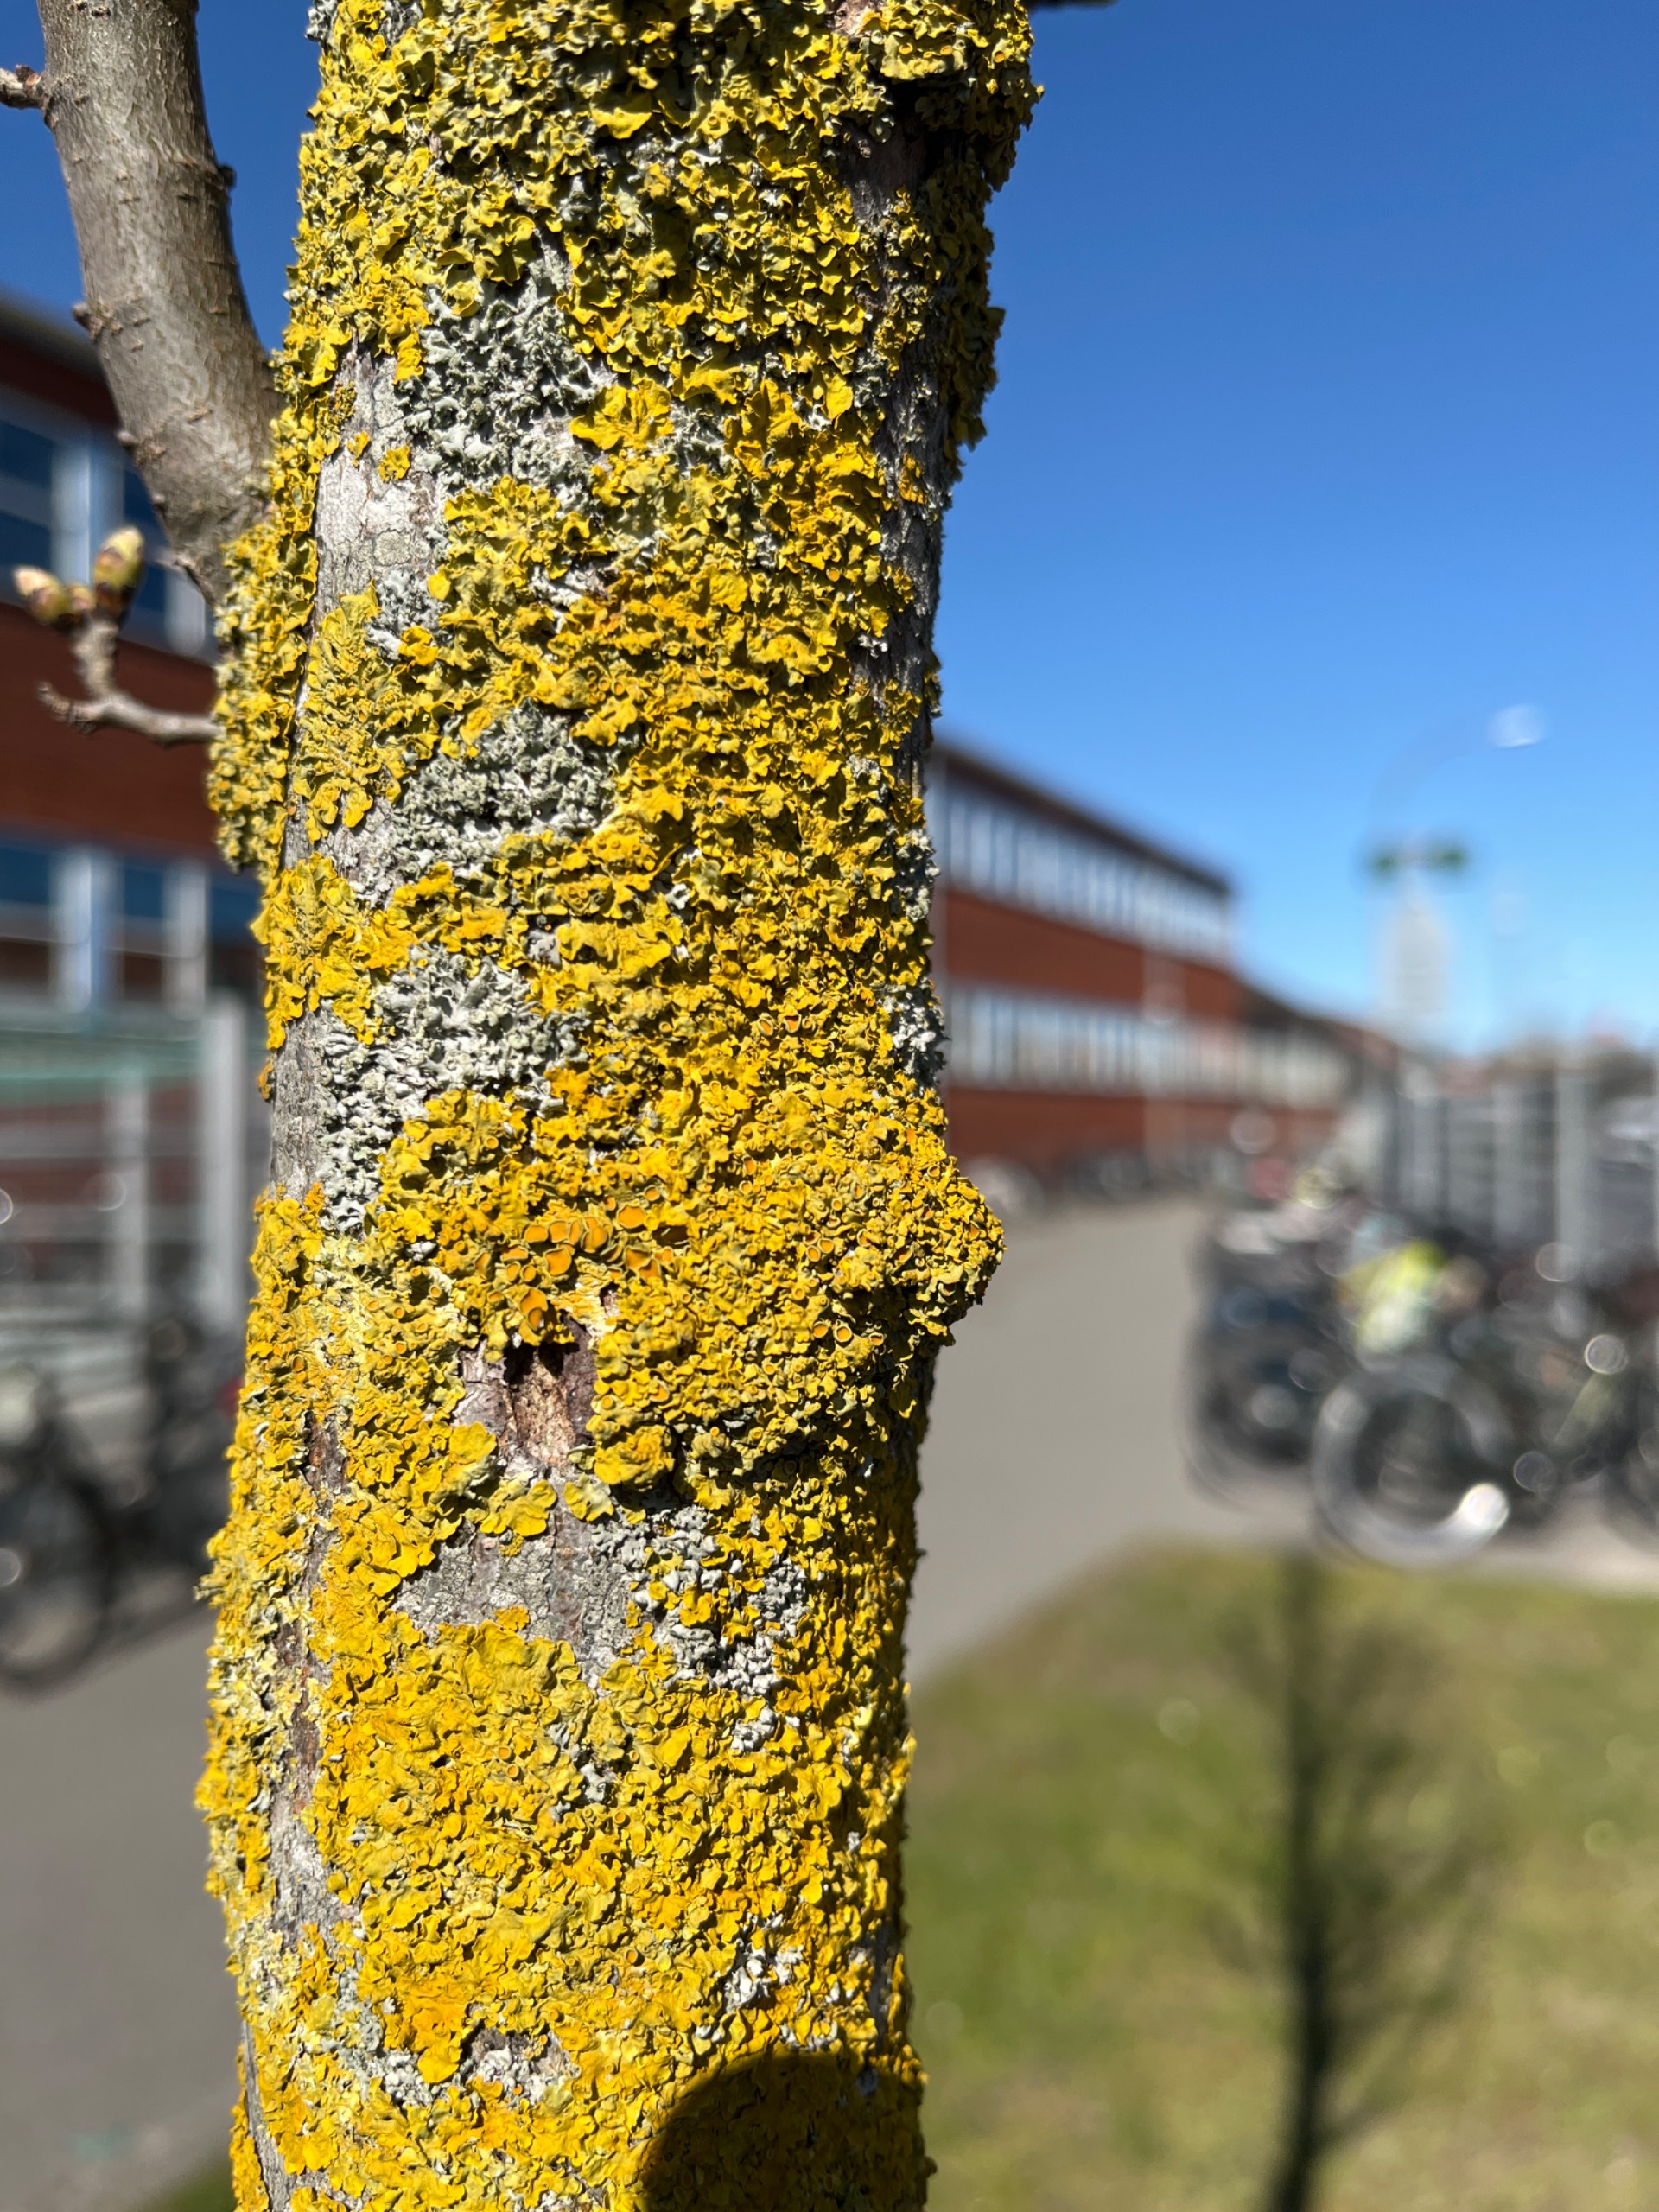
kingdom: Fungi
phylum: Ascomycota
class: Lecanoromycetes
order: Teloschistales
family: Teloschistaceae
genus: Xanthoria
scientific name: Xanthoria parietina
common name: Almindelig væggelav
